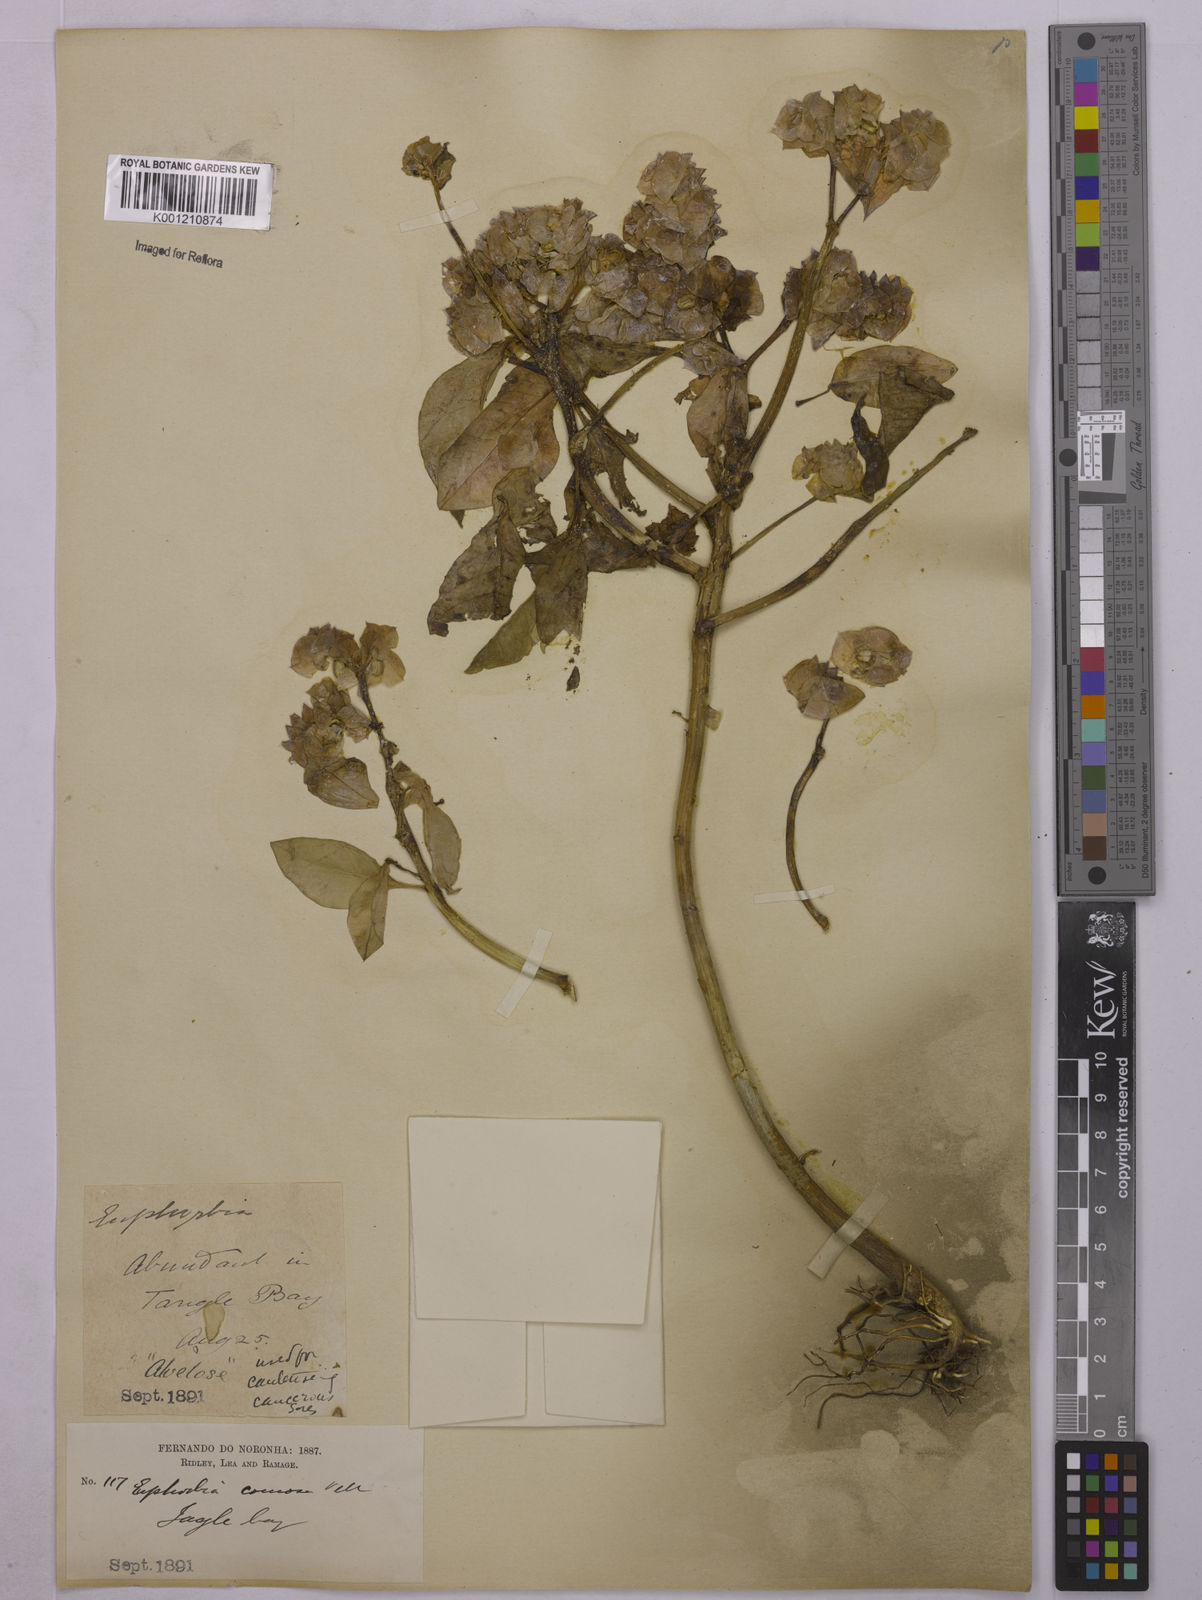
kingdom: Plantae
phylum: Tracheophyta
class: Magnoliopsida
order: Malpighiales
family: Euphorbiaceae
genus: Euphorbia
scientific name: Euphorbia comosa
